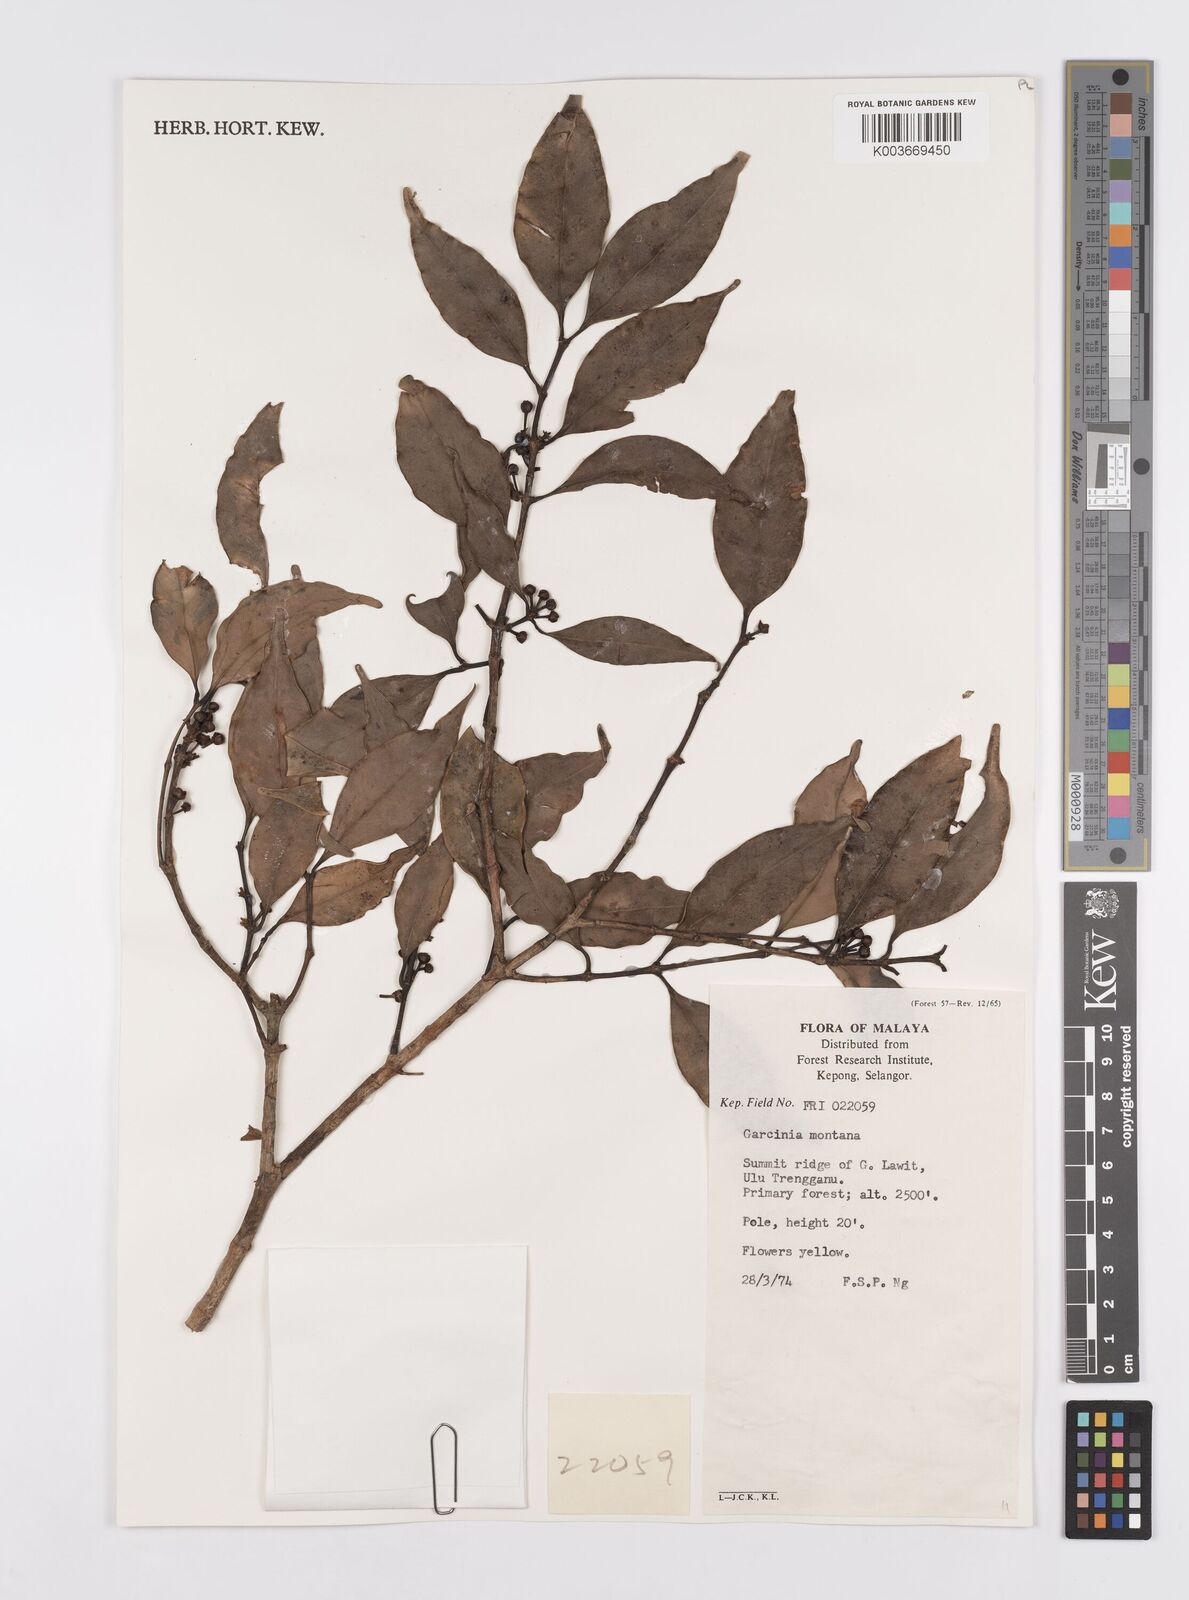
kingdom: Plantae
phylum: Tracheophyta
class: Magnoliopsida
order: Malpighiales
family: Clusiaceae
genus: Garcinia
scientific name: Garcinia montana
